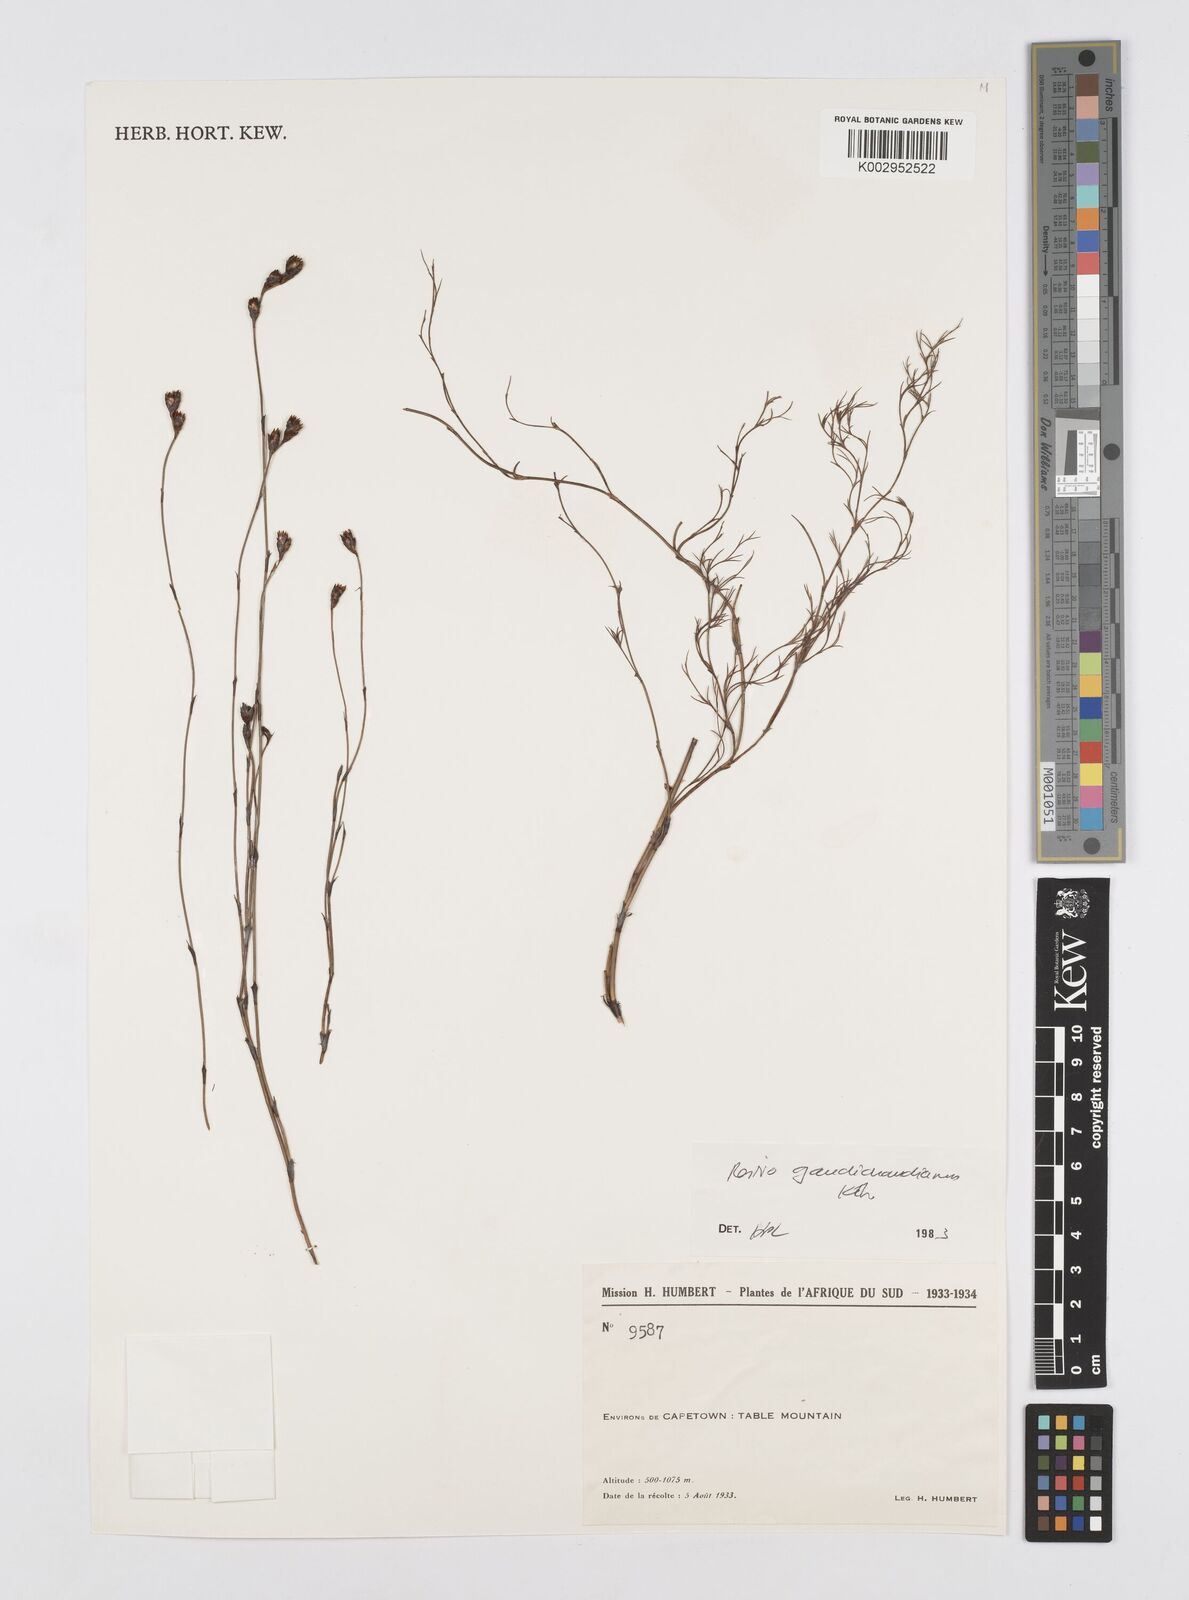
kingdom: Plantae
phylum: Tracheophyta
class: Liliopsida
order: Poales
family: Restionaceae
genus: Restio
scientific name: Restio gaudichaudianus
